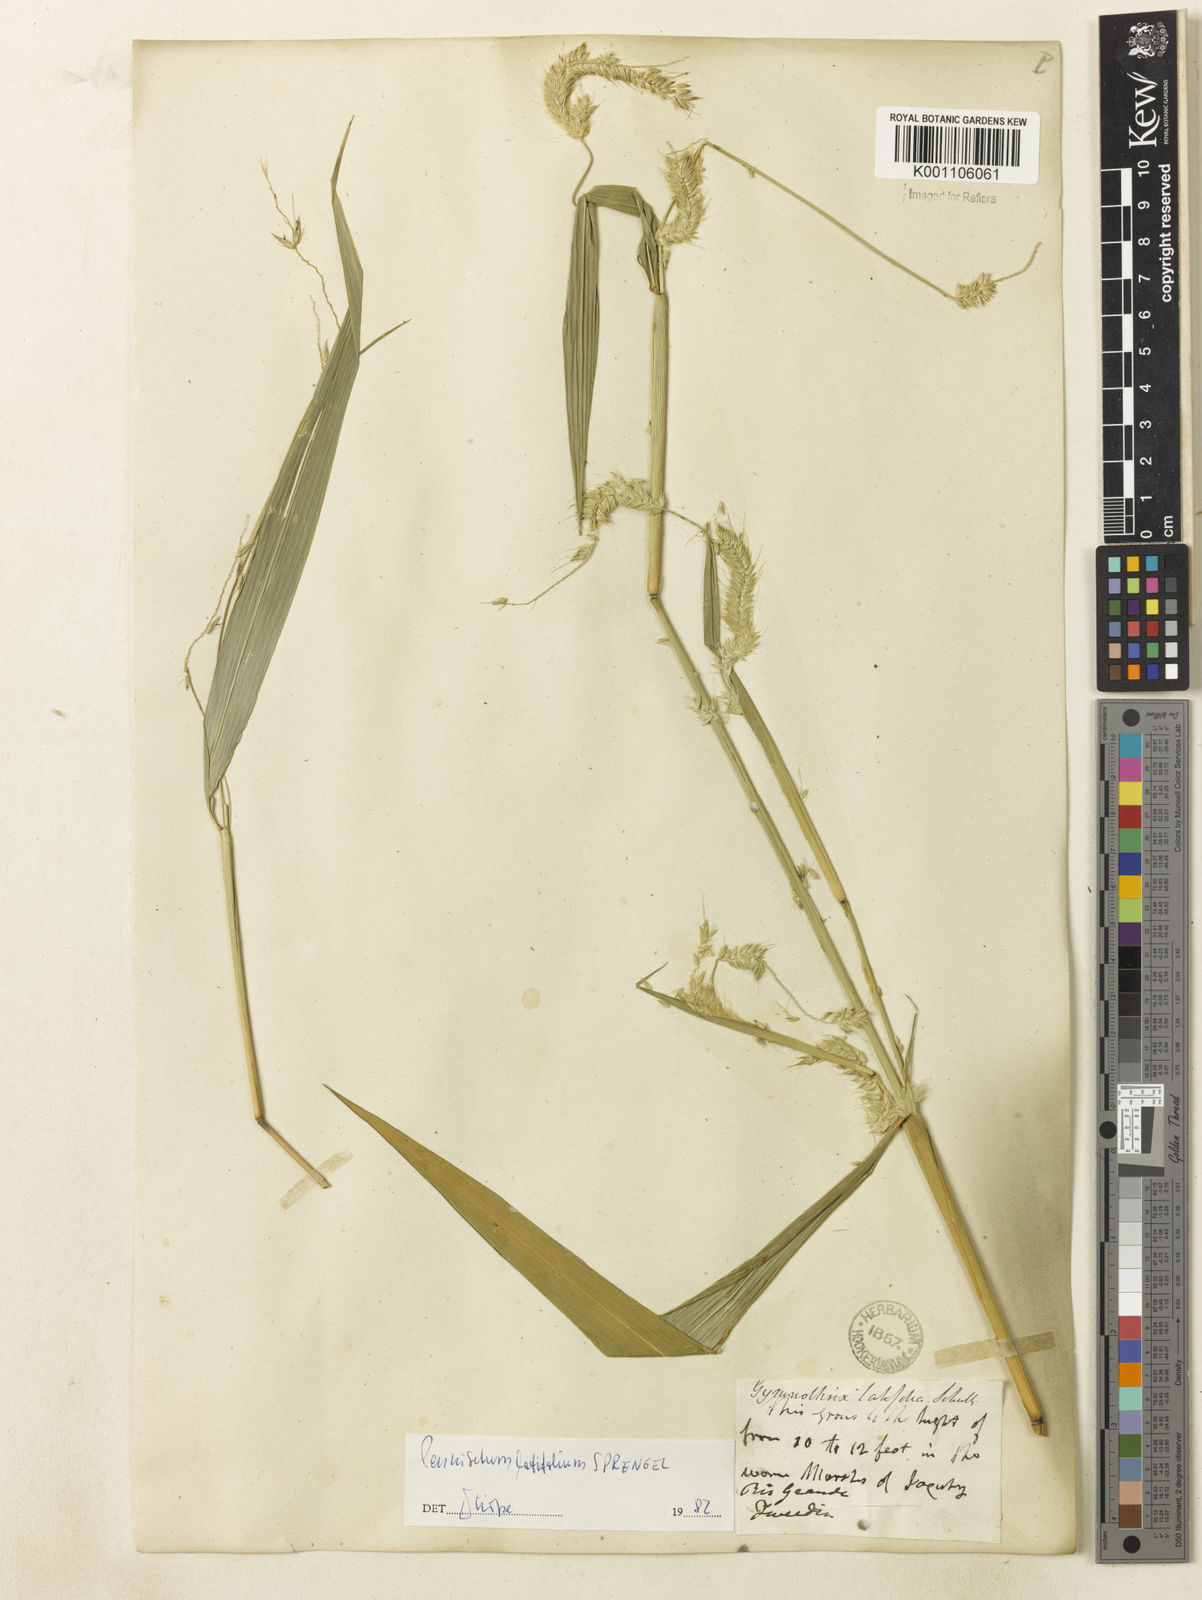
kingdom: Plantae
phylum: Tracheophyta
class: Liliopsida
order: Poales
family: Poaceae
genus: Cenchrus
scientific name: Cenchrus latifolius
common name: Sandbur
